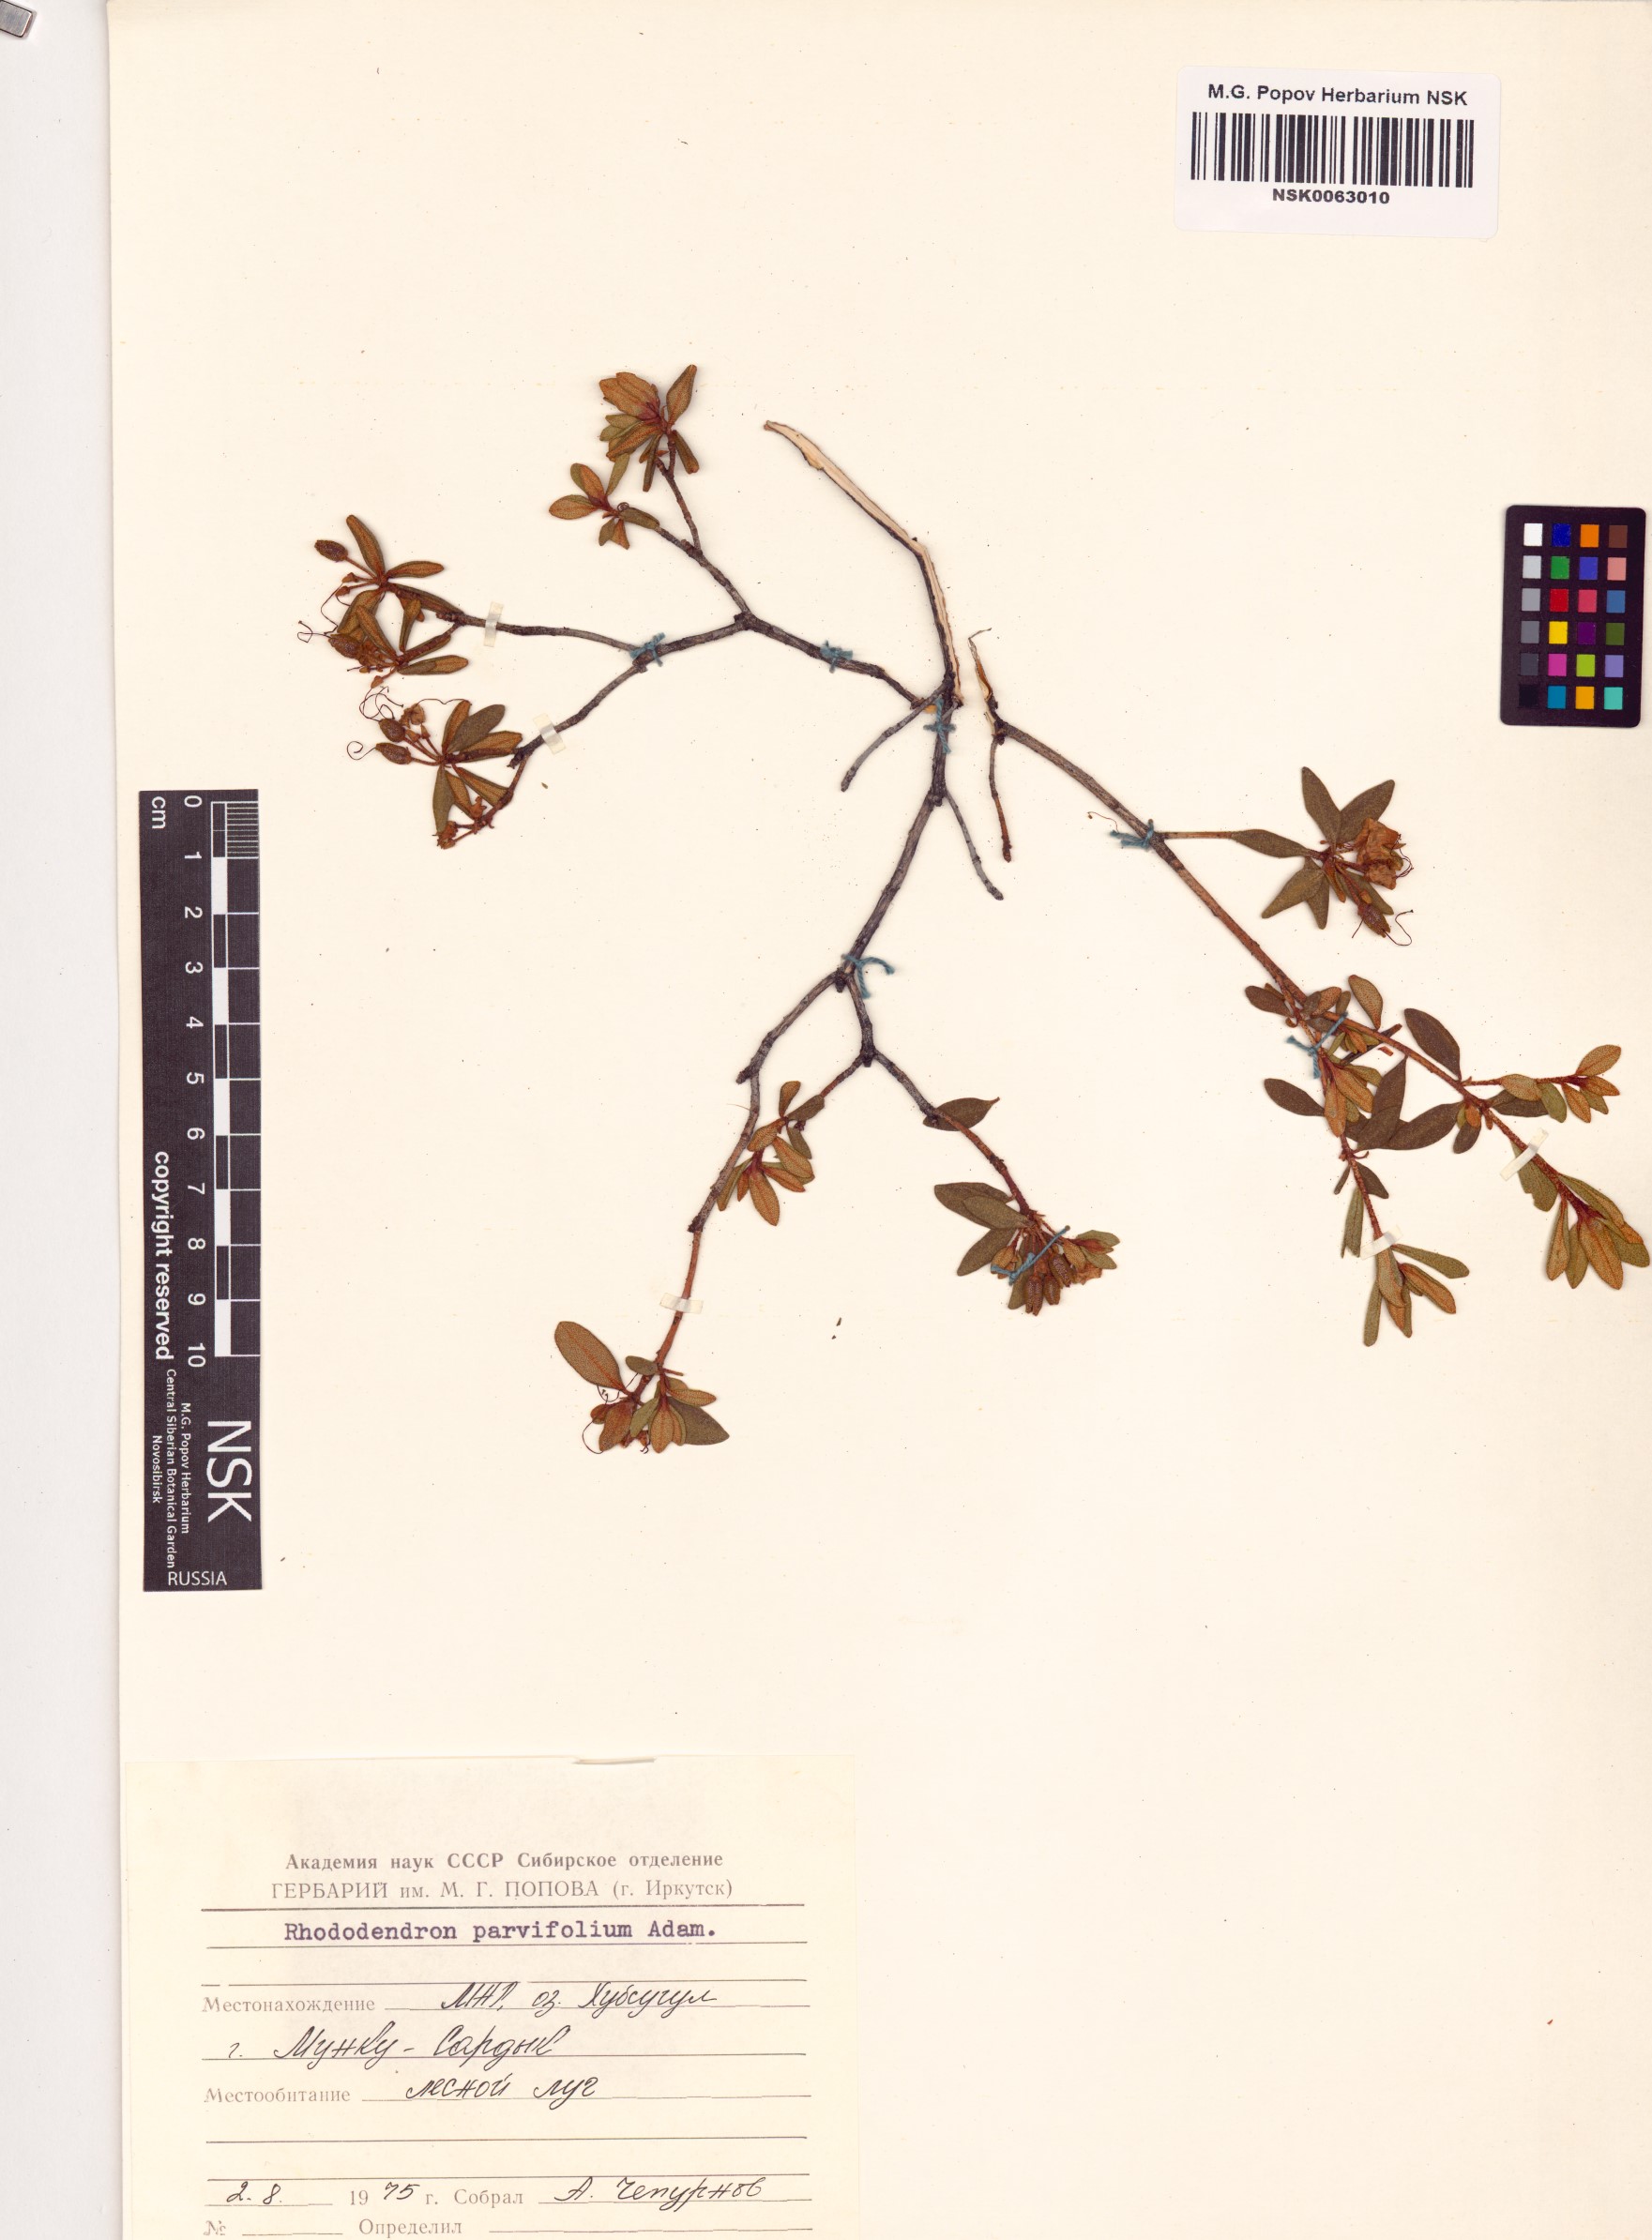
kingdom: Plantae
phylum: Tracheophyta
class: Magnoliopsida
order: Ericales
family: Ericaceae
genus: Rhododendron
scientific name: Rhododendron parvifolium
